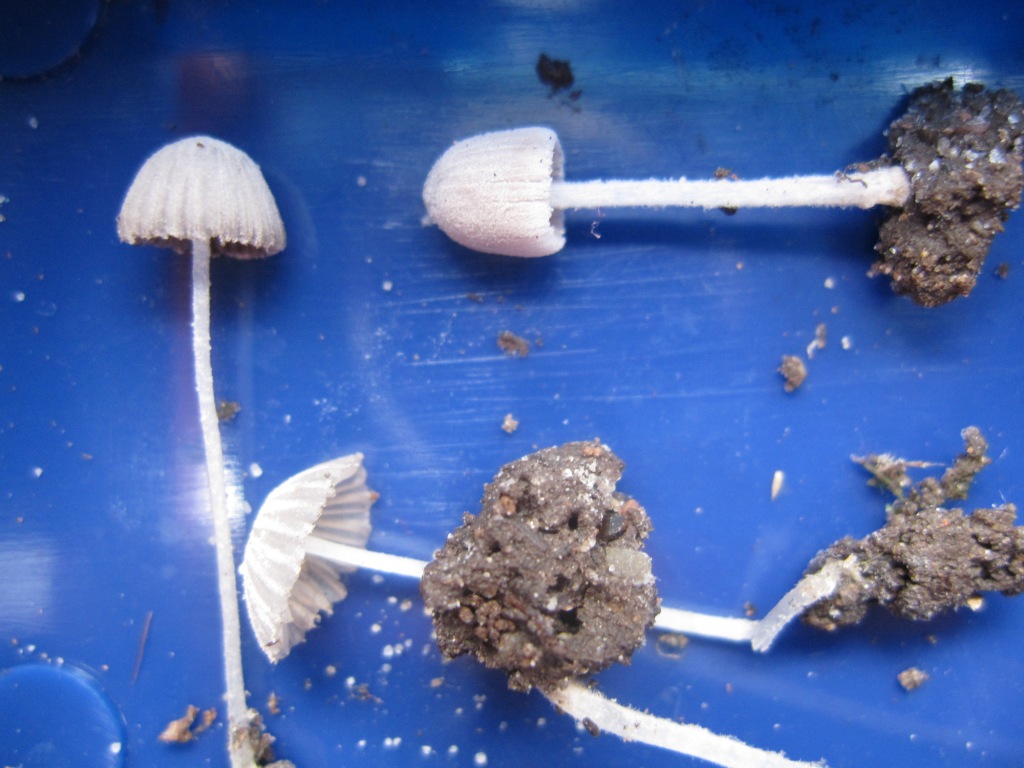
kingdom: Fungi
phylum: Basidiomycota
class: Agaricomycetes
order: Agaricales
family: Psathyrellaceae
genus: Coprinopsis
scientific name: Coprinopsis candidata
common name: hvidklædt blækhat
